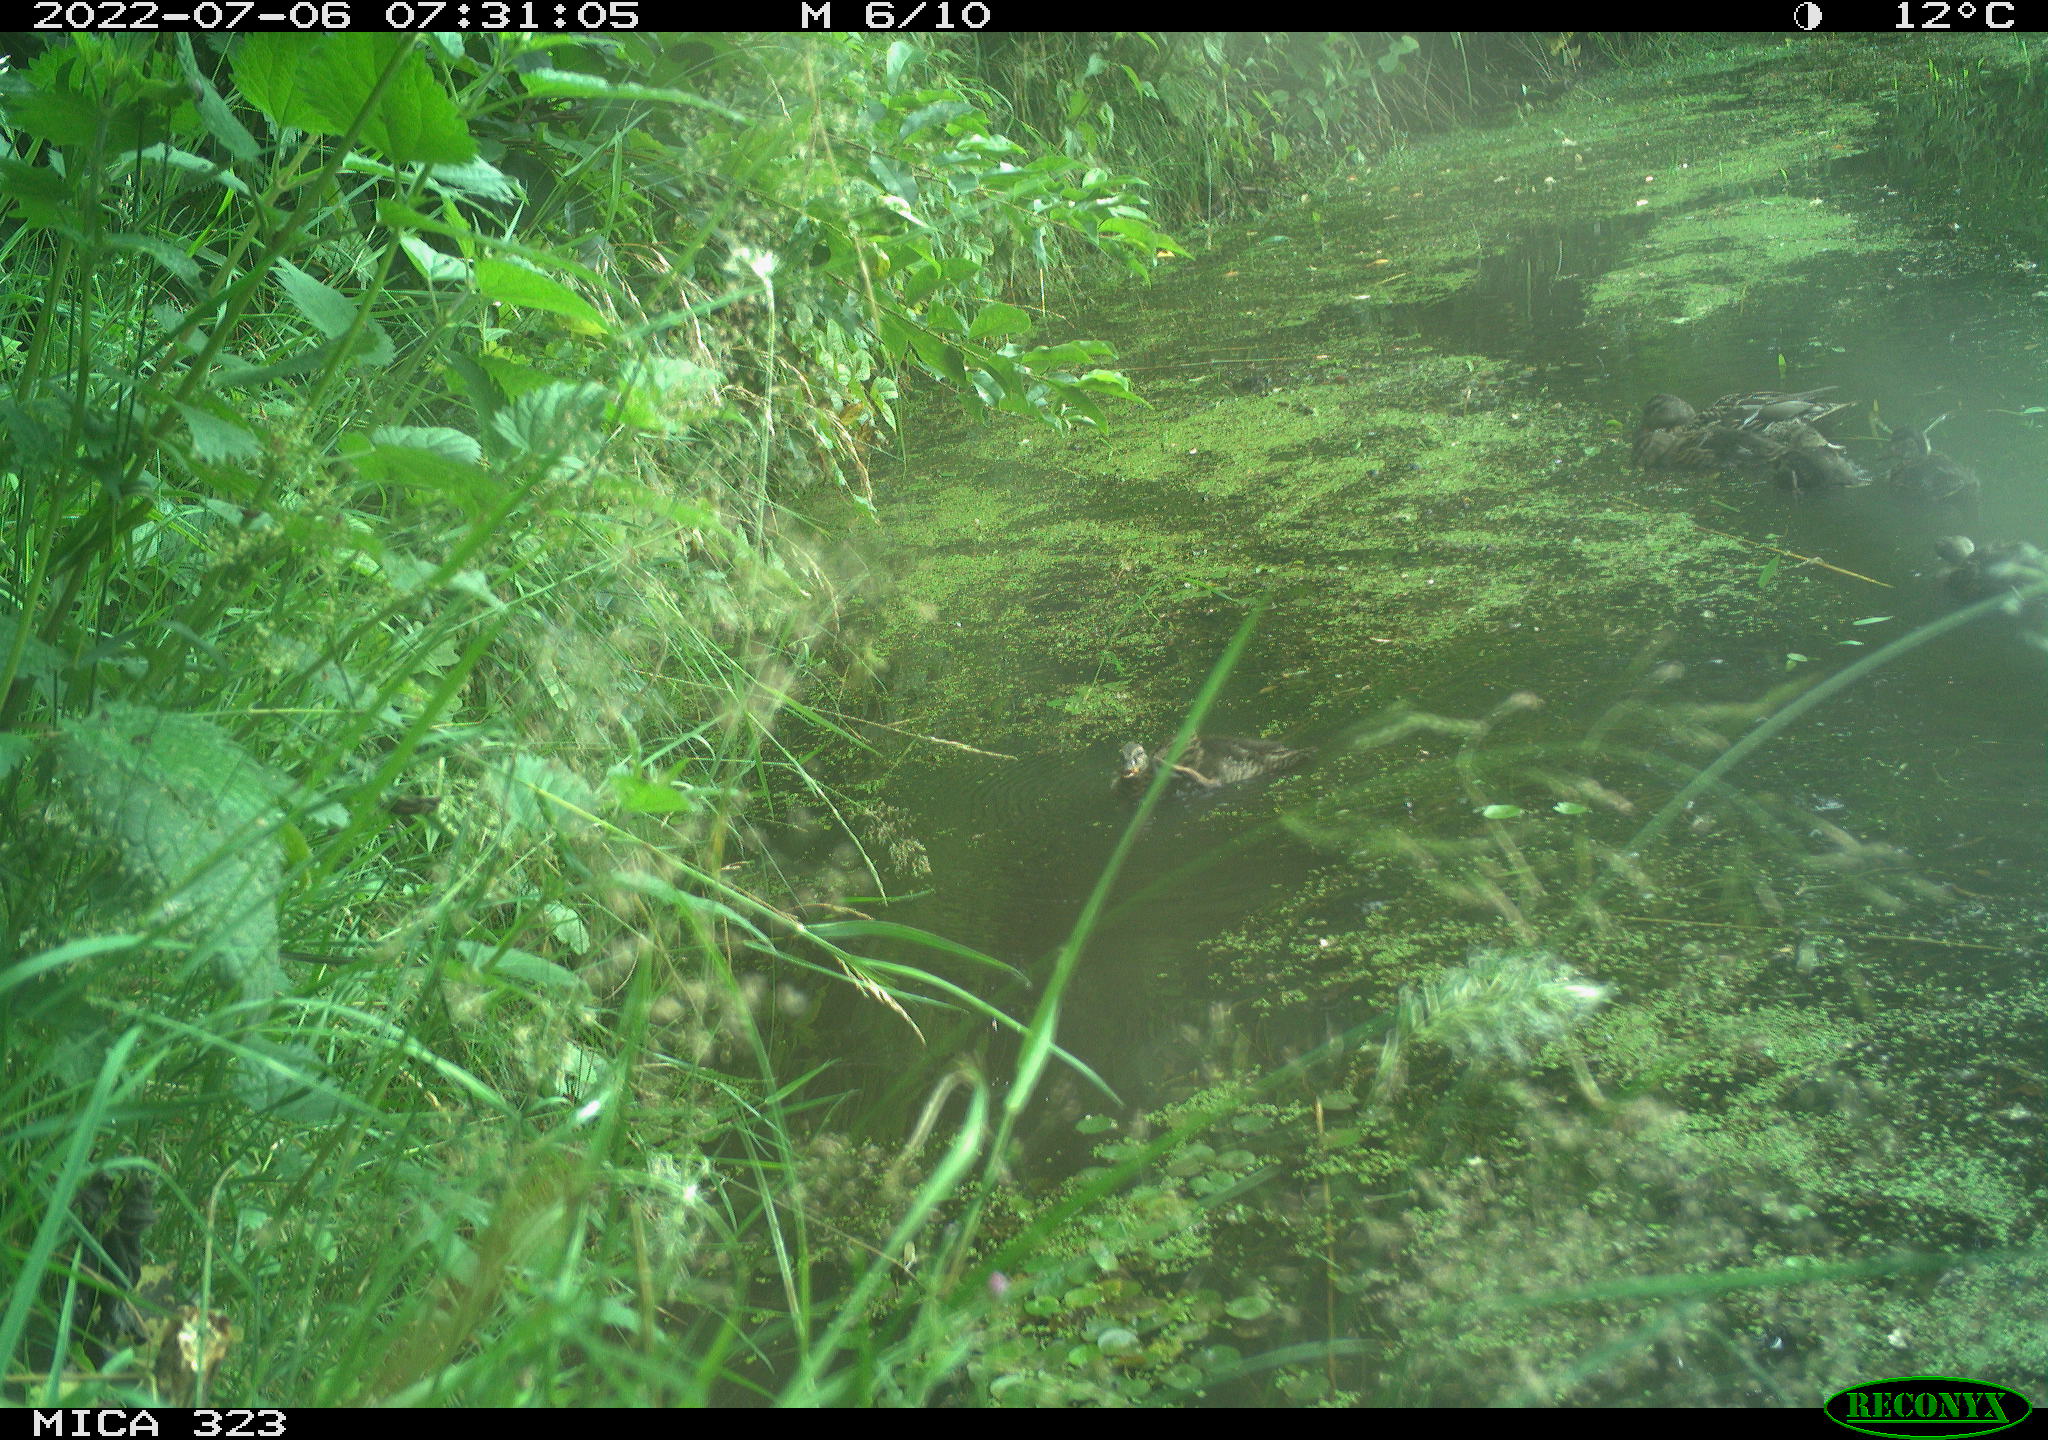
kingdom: Animalia
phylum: Chordata
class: Aves
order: Anseriformes
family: Anatidae
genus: Anas
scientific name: Anas platyrhynchos
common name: Mallard
